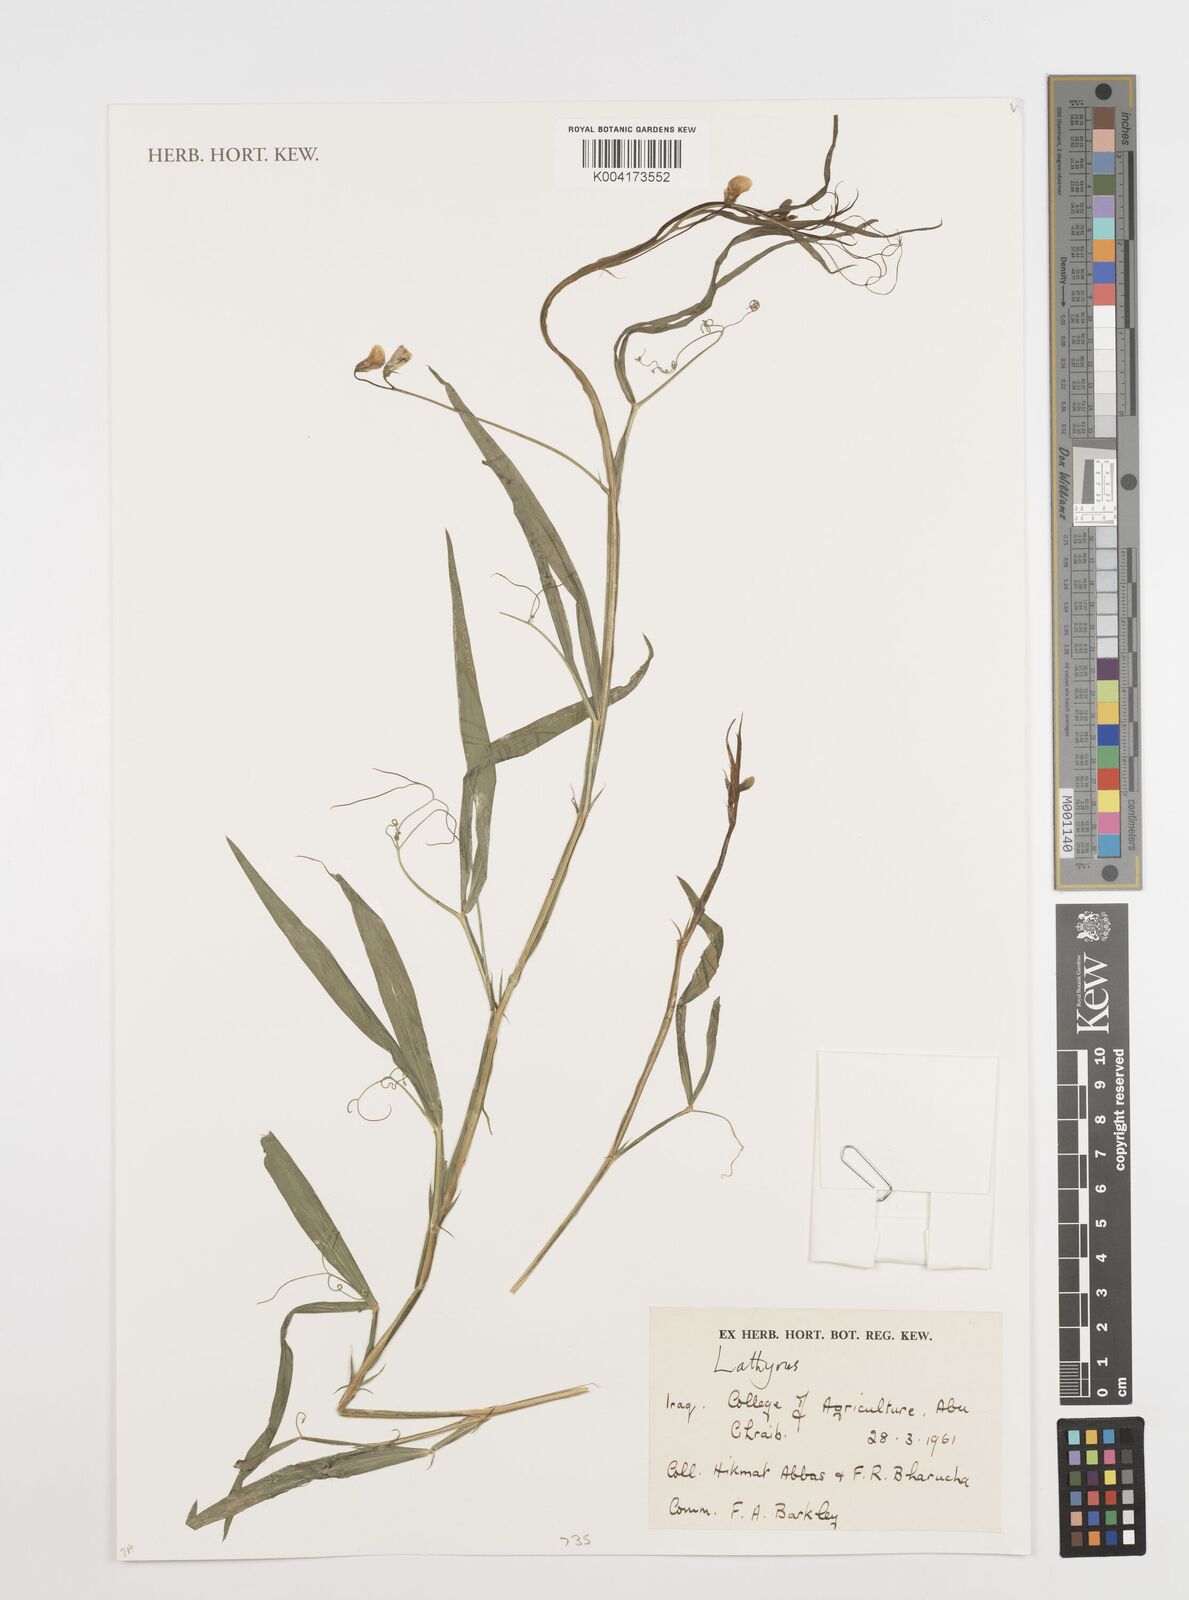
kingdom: Plantae
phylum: Tracheophyta
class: Magnoliopsida
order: Fabales
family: Fabaceae
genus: Lathyrus
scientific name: Lathyrus
